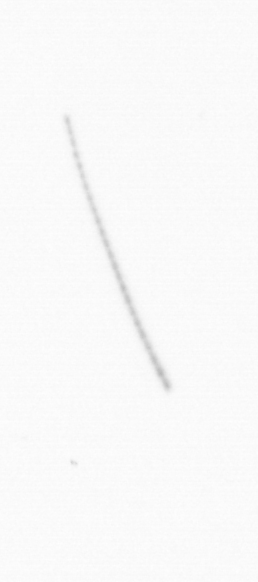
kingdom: Chromista
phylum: Ochrophyta
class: Bacillariophyceae
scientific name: Bacillariophyceae
